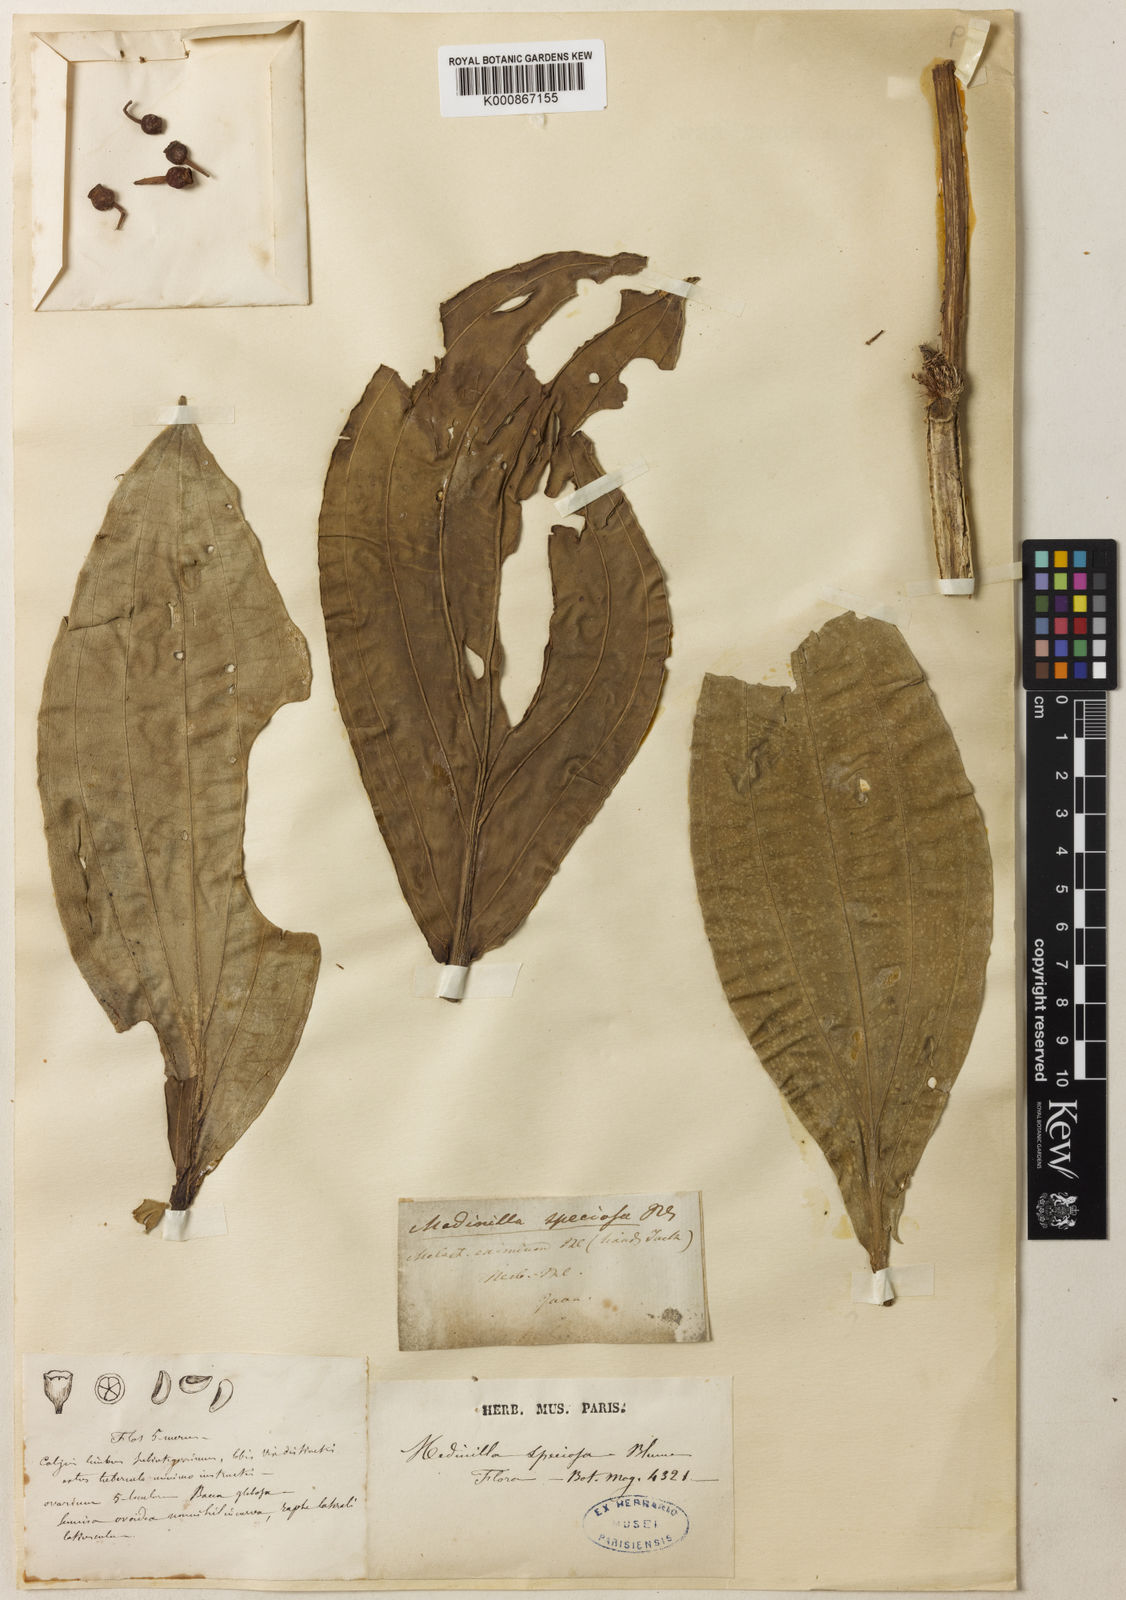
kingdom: Plantae
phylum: Tracheophyta
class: Magnoliopsida
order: Myrtales
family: Melastomataceae
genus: Medinilla
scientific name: Medinilla speciosa
